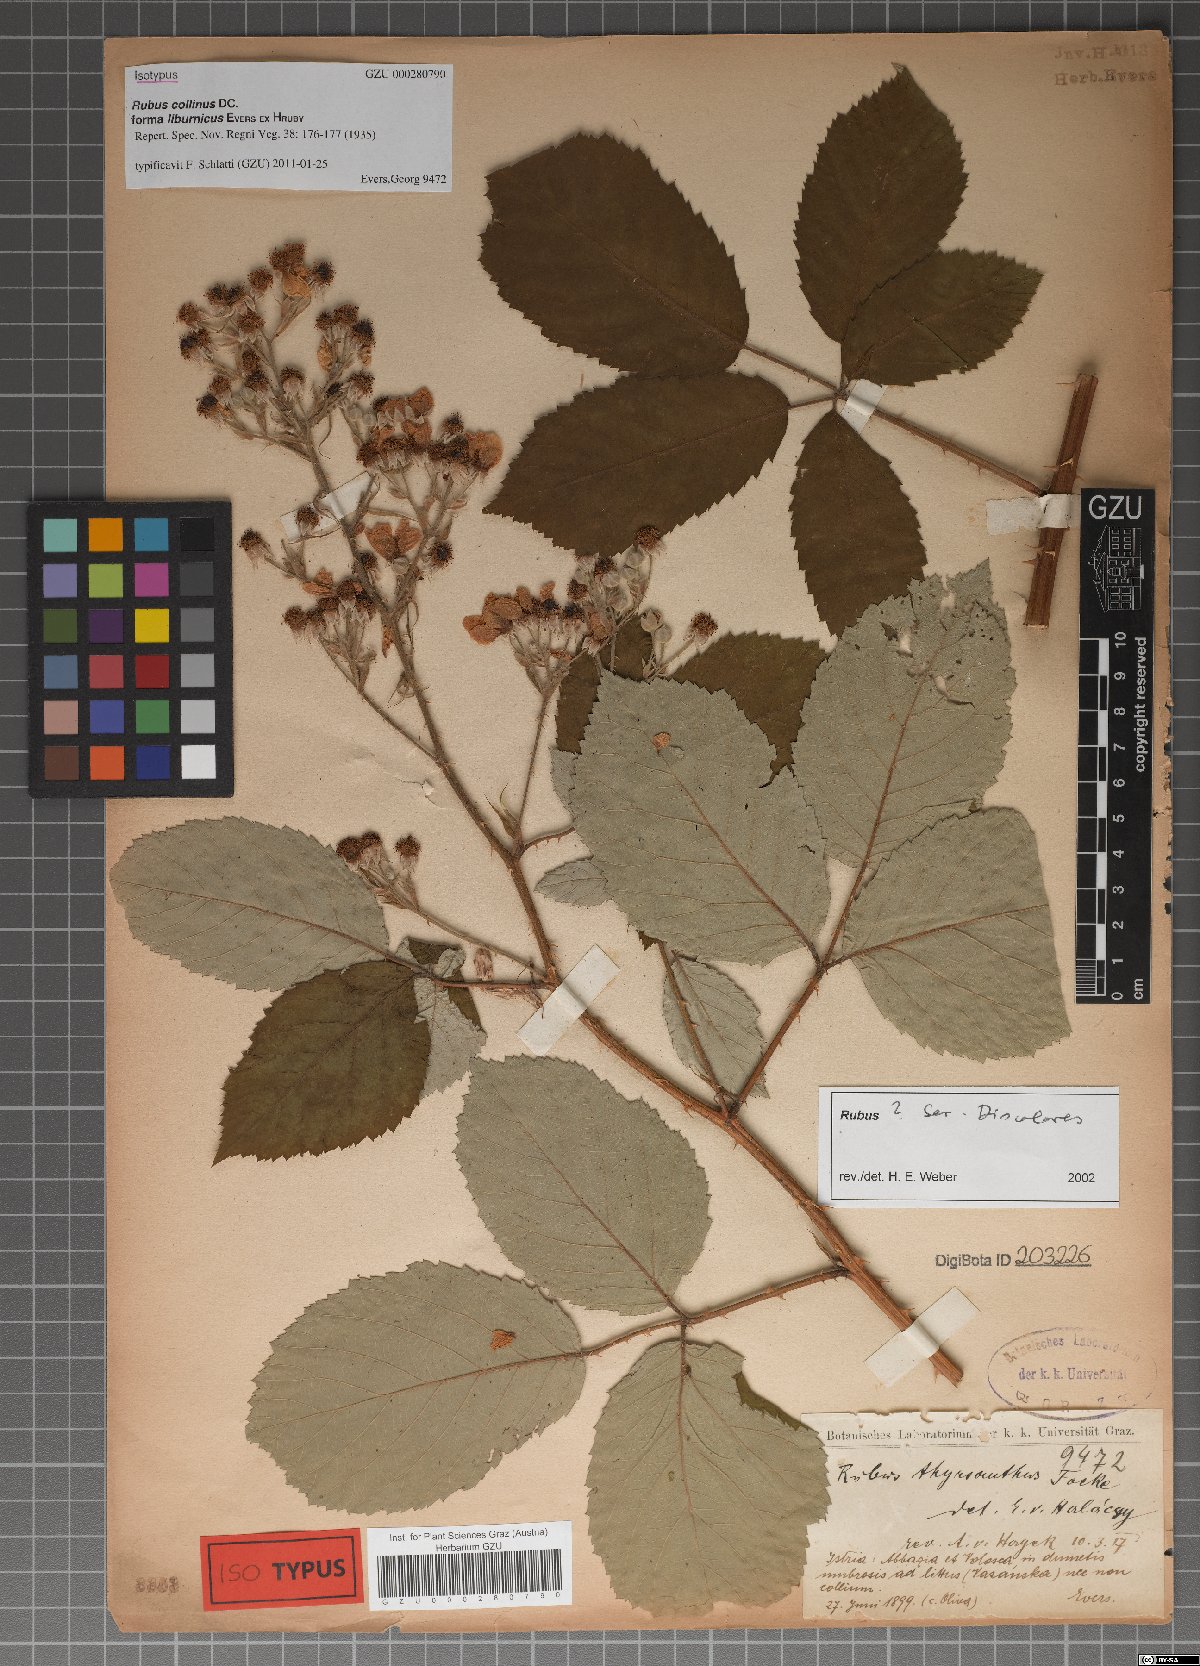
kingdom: Plantae
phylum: Tracheophyta
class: Magnoliopsida
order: Rosales
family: Rosaceae
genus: Rubus
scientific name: Rubus collinus
